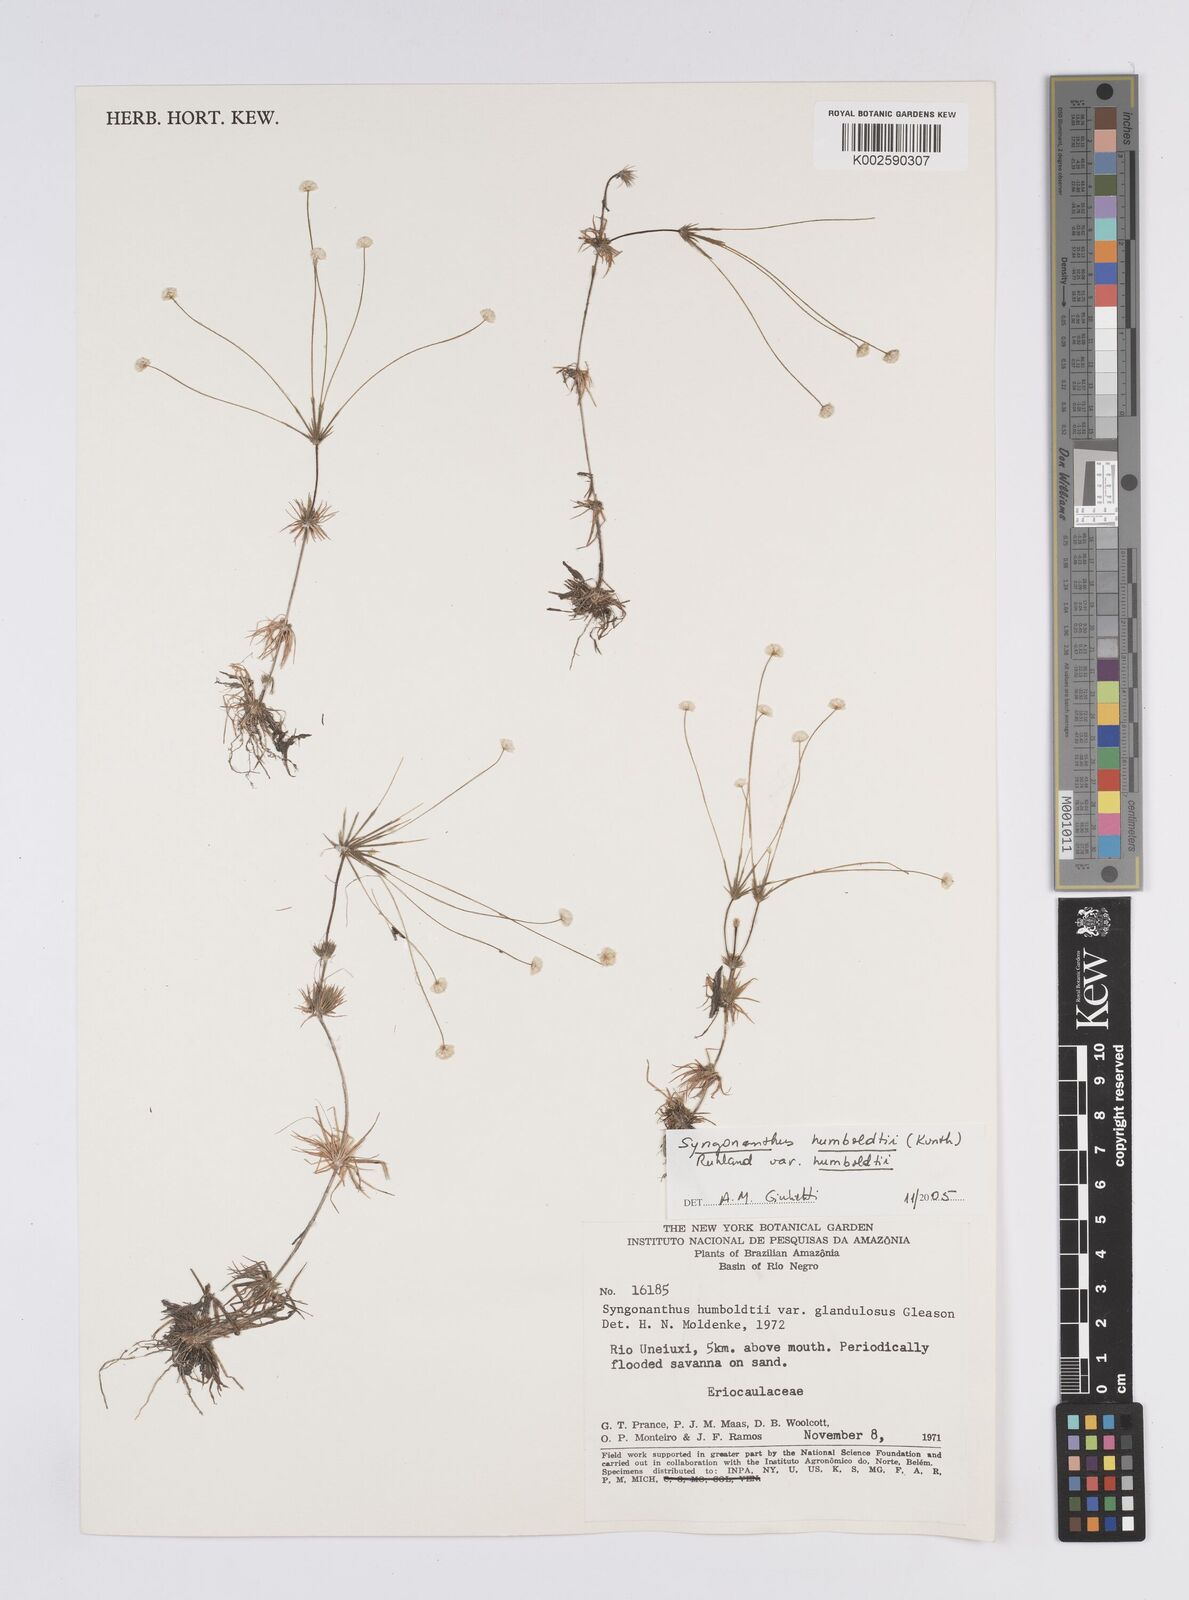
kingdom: Plantae
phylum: Tracheophyta
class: Liliopsida
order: Poales
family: Eriocaulaceae
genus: Syngonanthus
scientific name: Syngonanthus humboldtii
